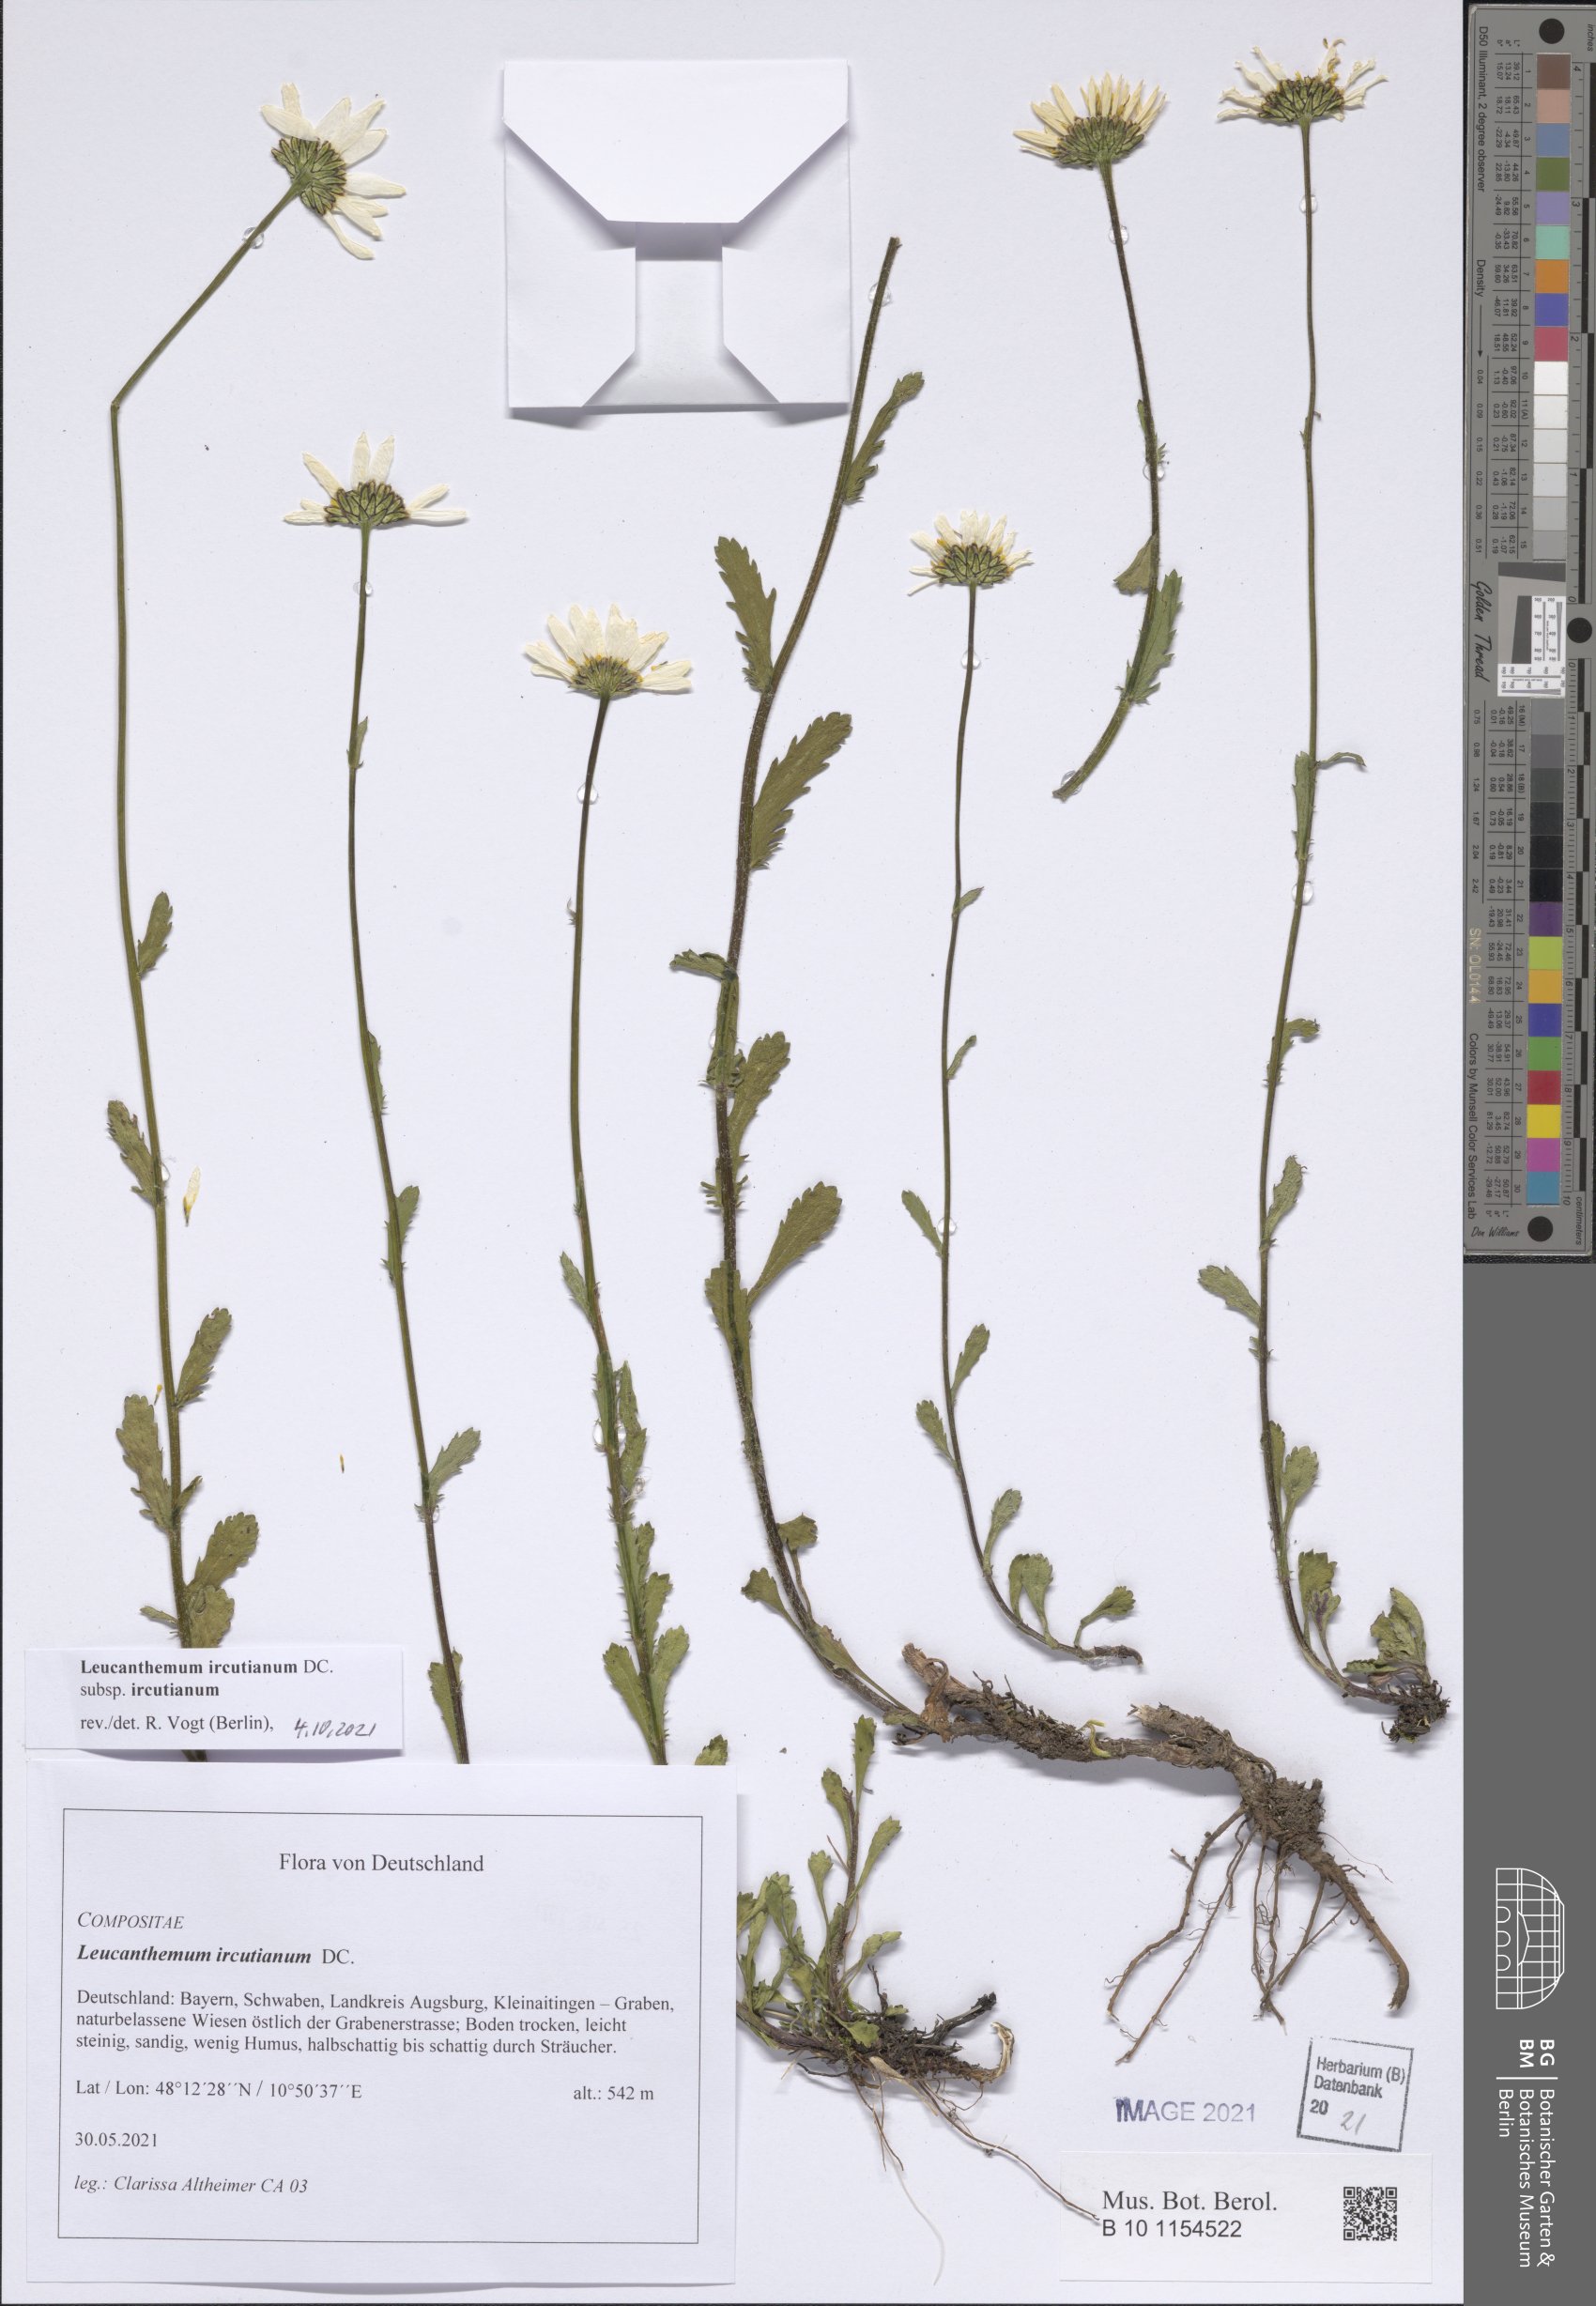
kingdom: Plantae
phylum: Tracheophyta
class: Magnoliopsida
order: Asterales
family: Asteraceae
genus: Leucanthemum
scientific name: Leucanthemum ircutianum
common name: Daisy
